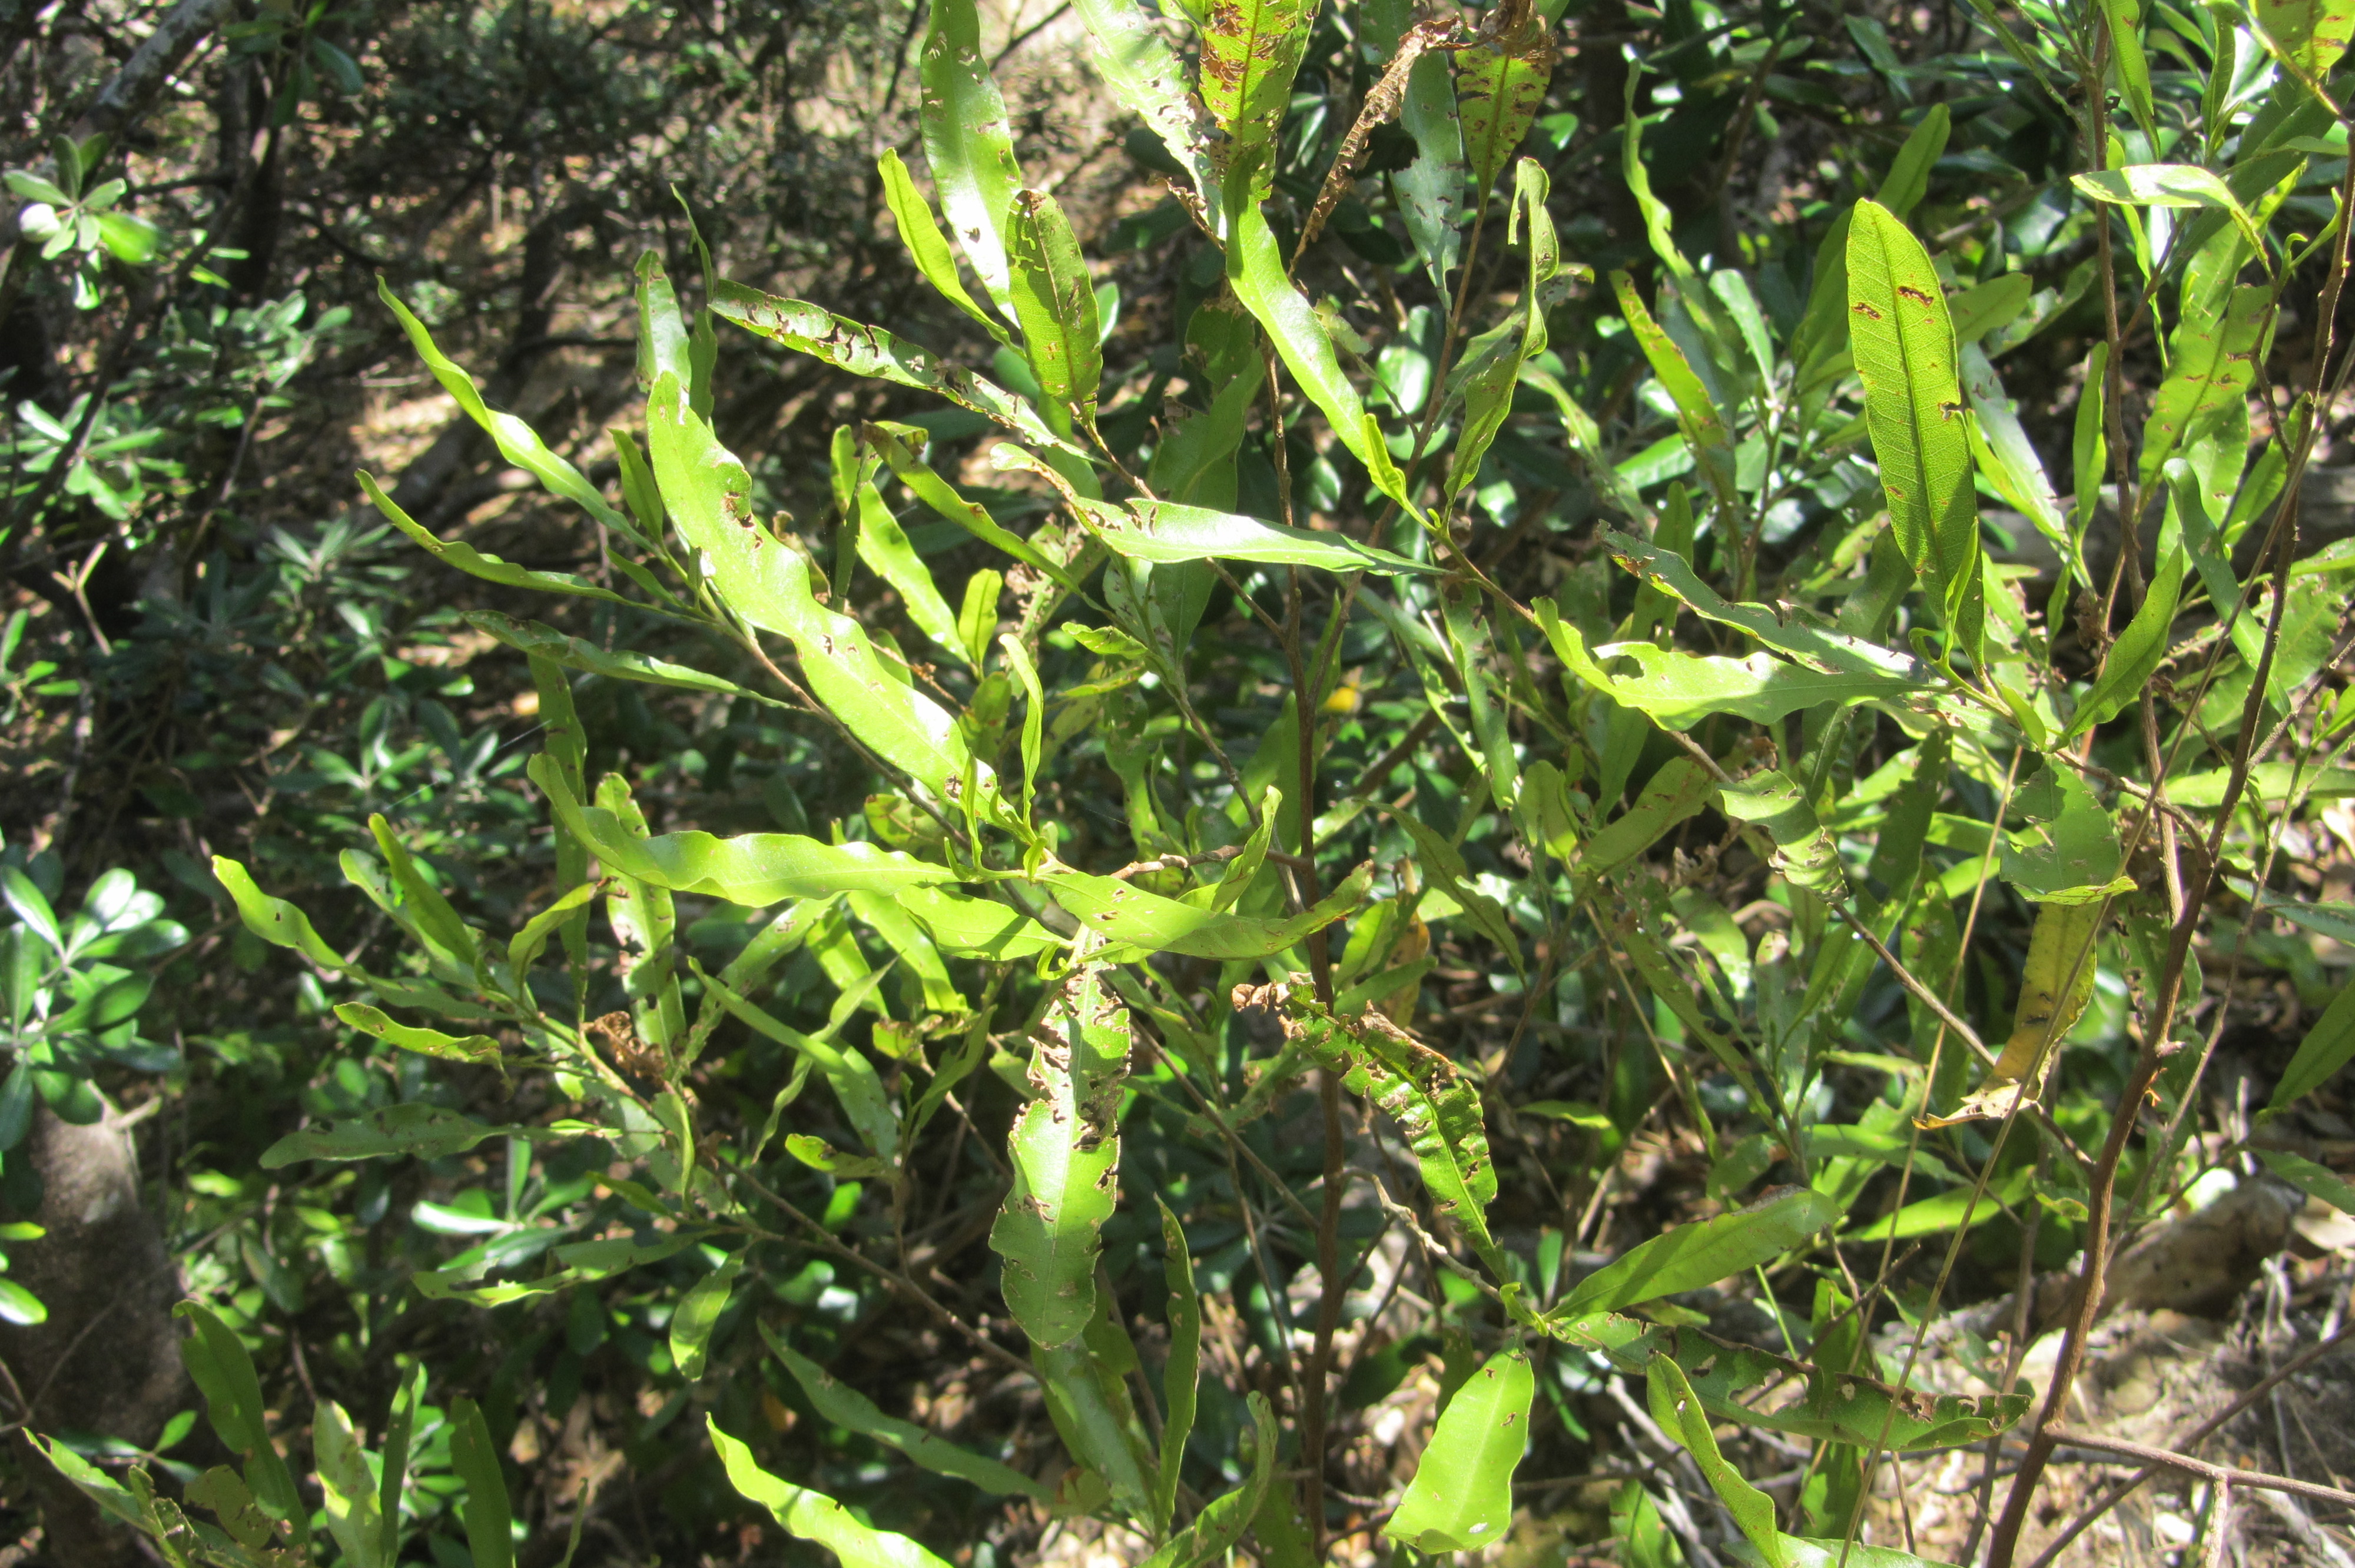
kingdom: Plantae
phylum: Tracheophyta
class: Magnoliopsida
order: Sapindales
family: Sapindaceae
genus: Dodonaea
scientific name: Dodonaea viscosa
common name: Hopbush
